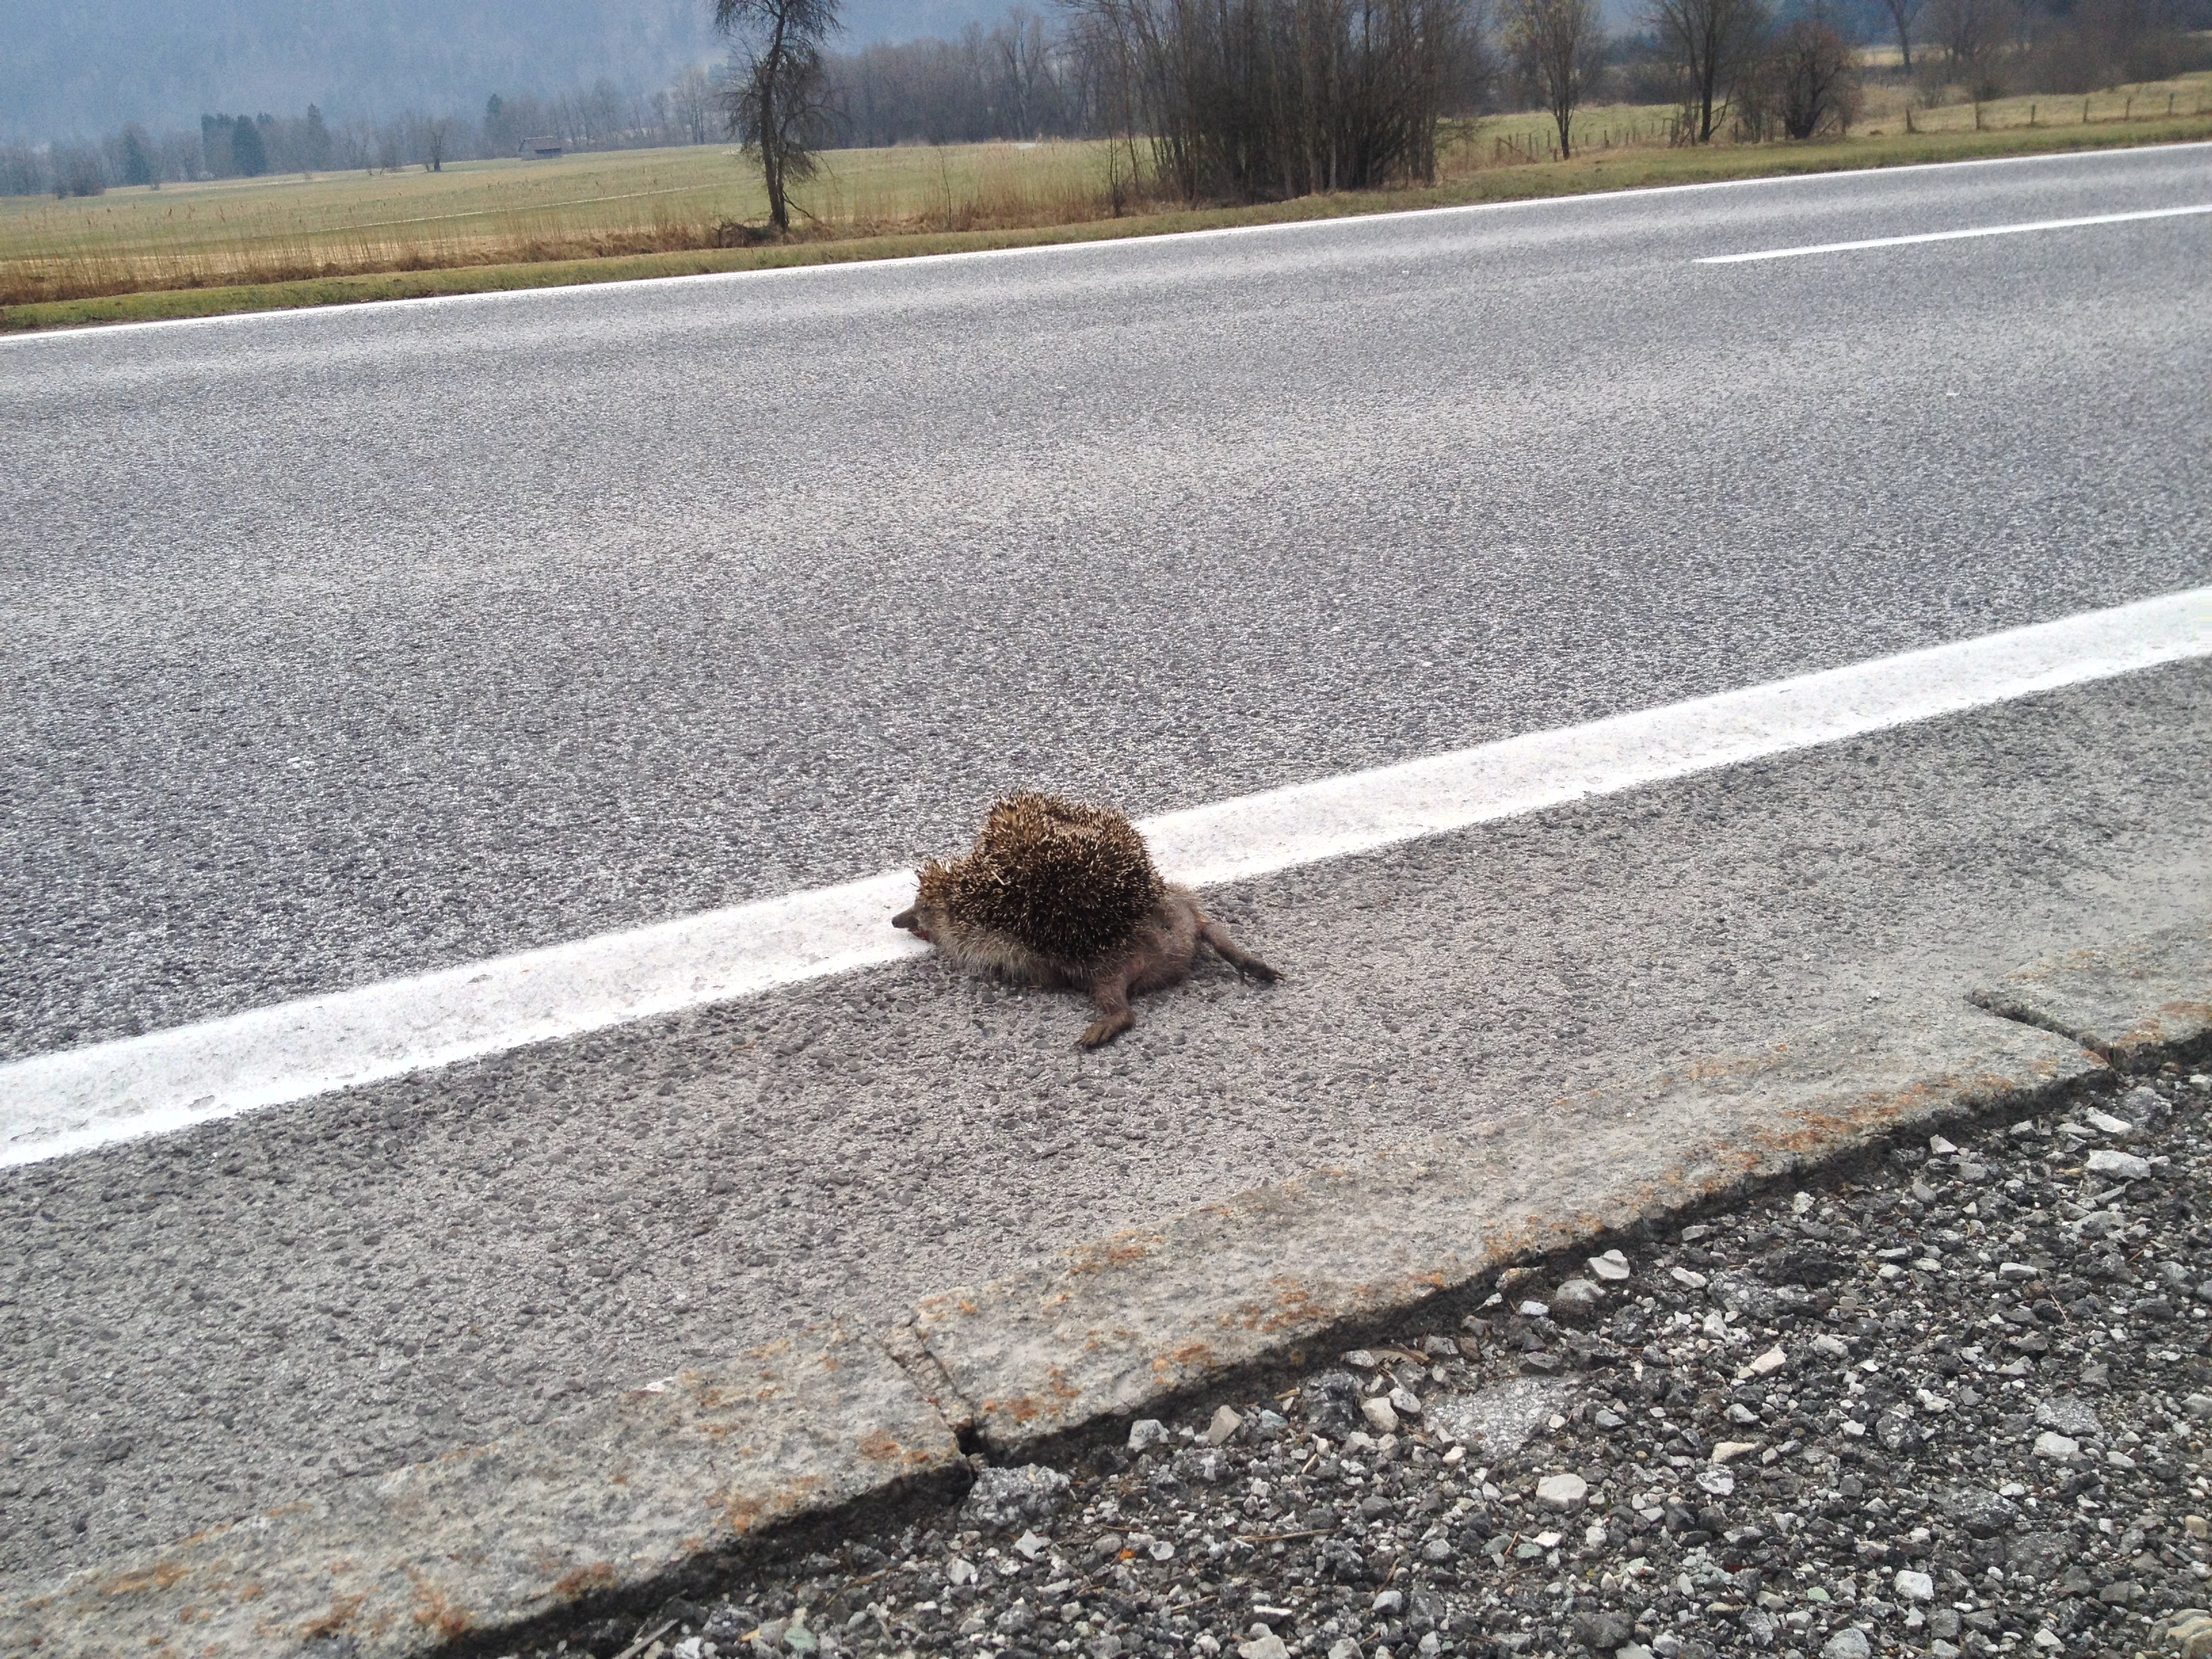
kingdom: Animalia
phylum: Chordata
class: Mammalia
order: Erinaceomorpha
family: Erinaceidae
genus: Erinaceus
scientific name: Erinaceus
